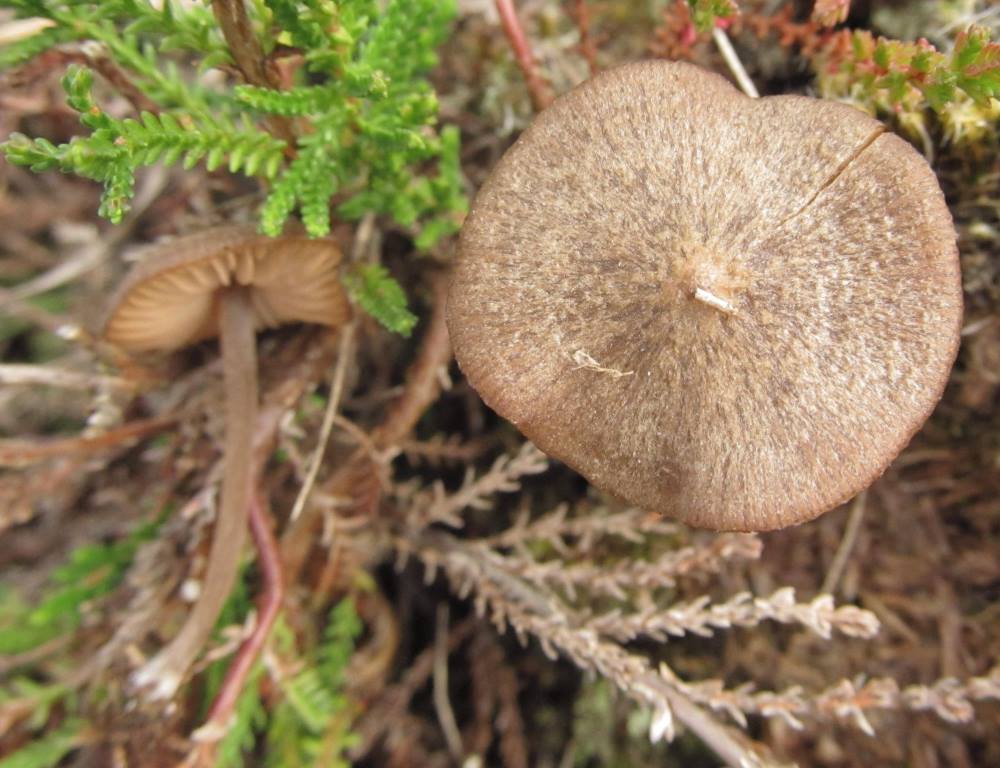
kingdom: Fungi
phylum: Basidiomycota
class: Agaricomycetes
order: Agaricales
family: Entolomataceae
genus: Entoloma
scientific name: Entoloma fernandae
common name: filtet rødblad
